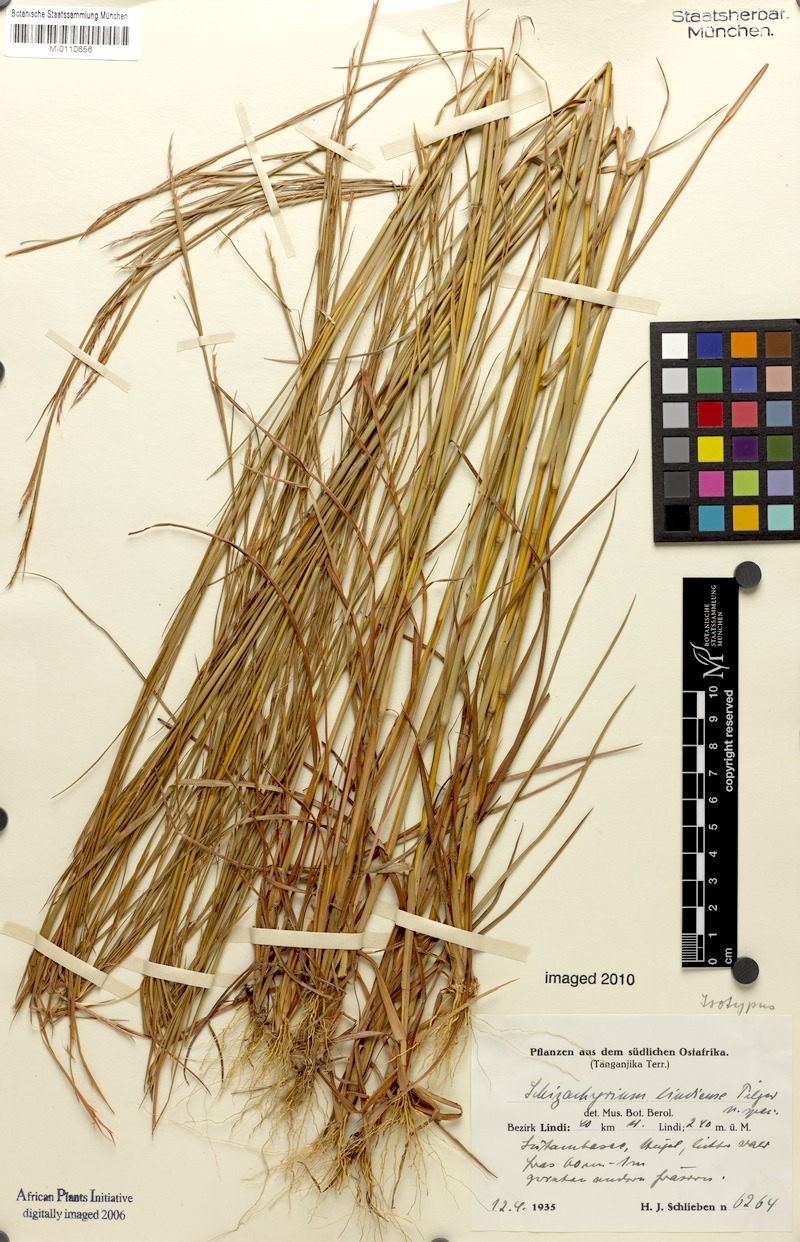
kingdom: Plantae
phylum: Tracheophyta
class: Liliopsida
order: Poales
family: Poaceae
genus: Schizachyrium
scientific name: Schizachyrium sanguineum
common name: Crimson bluestem
